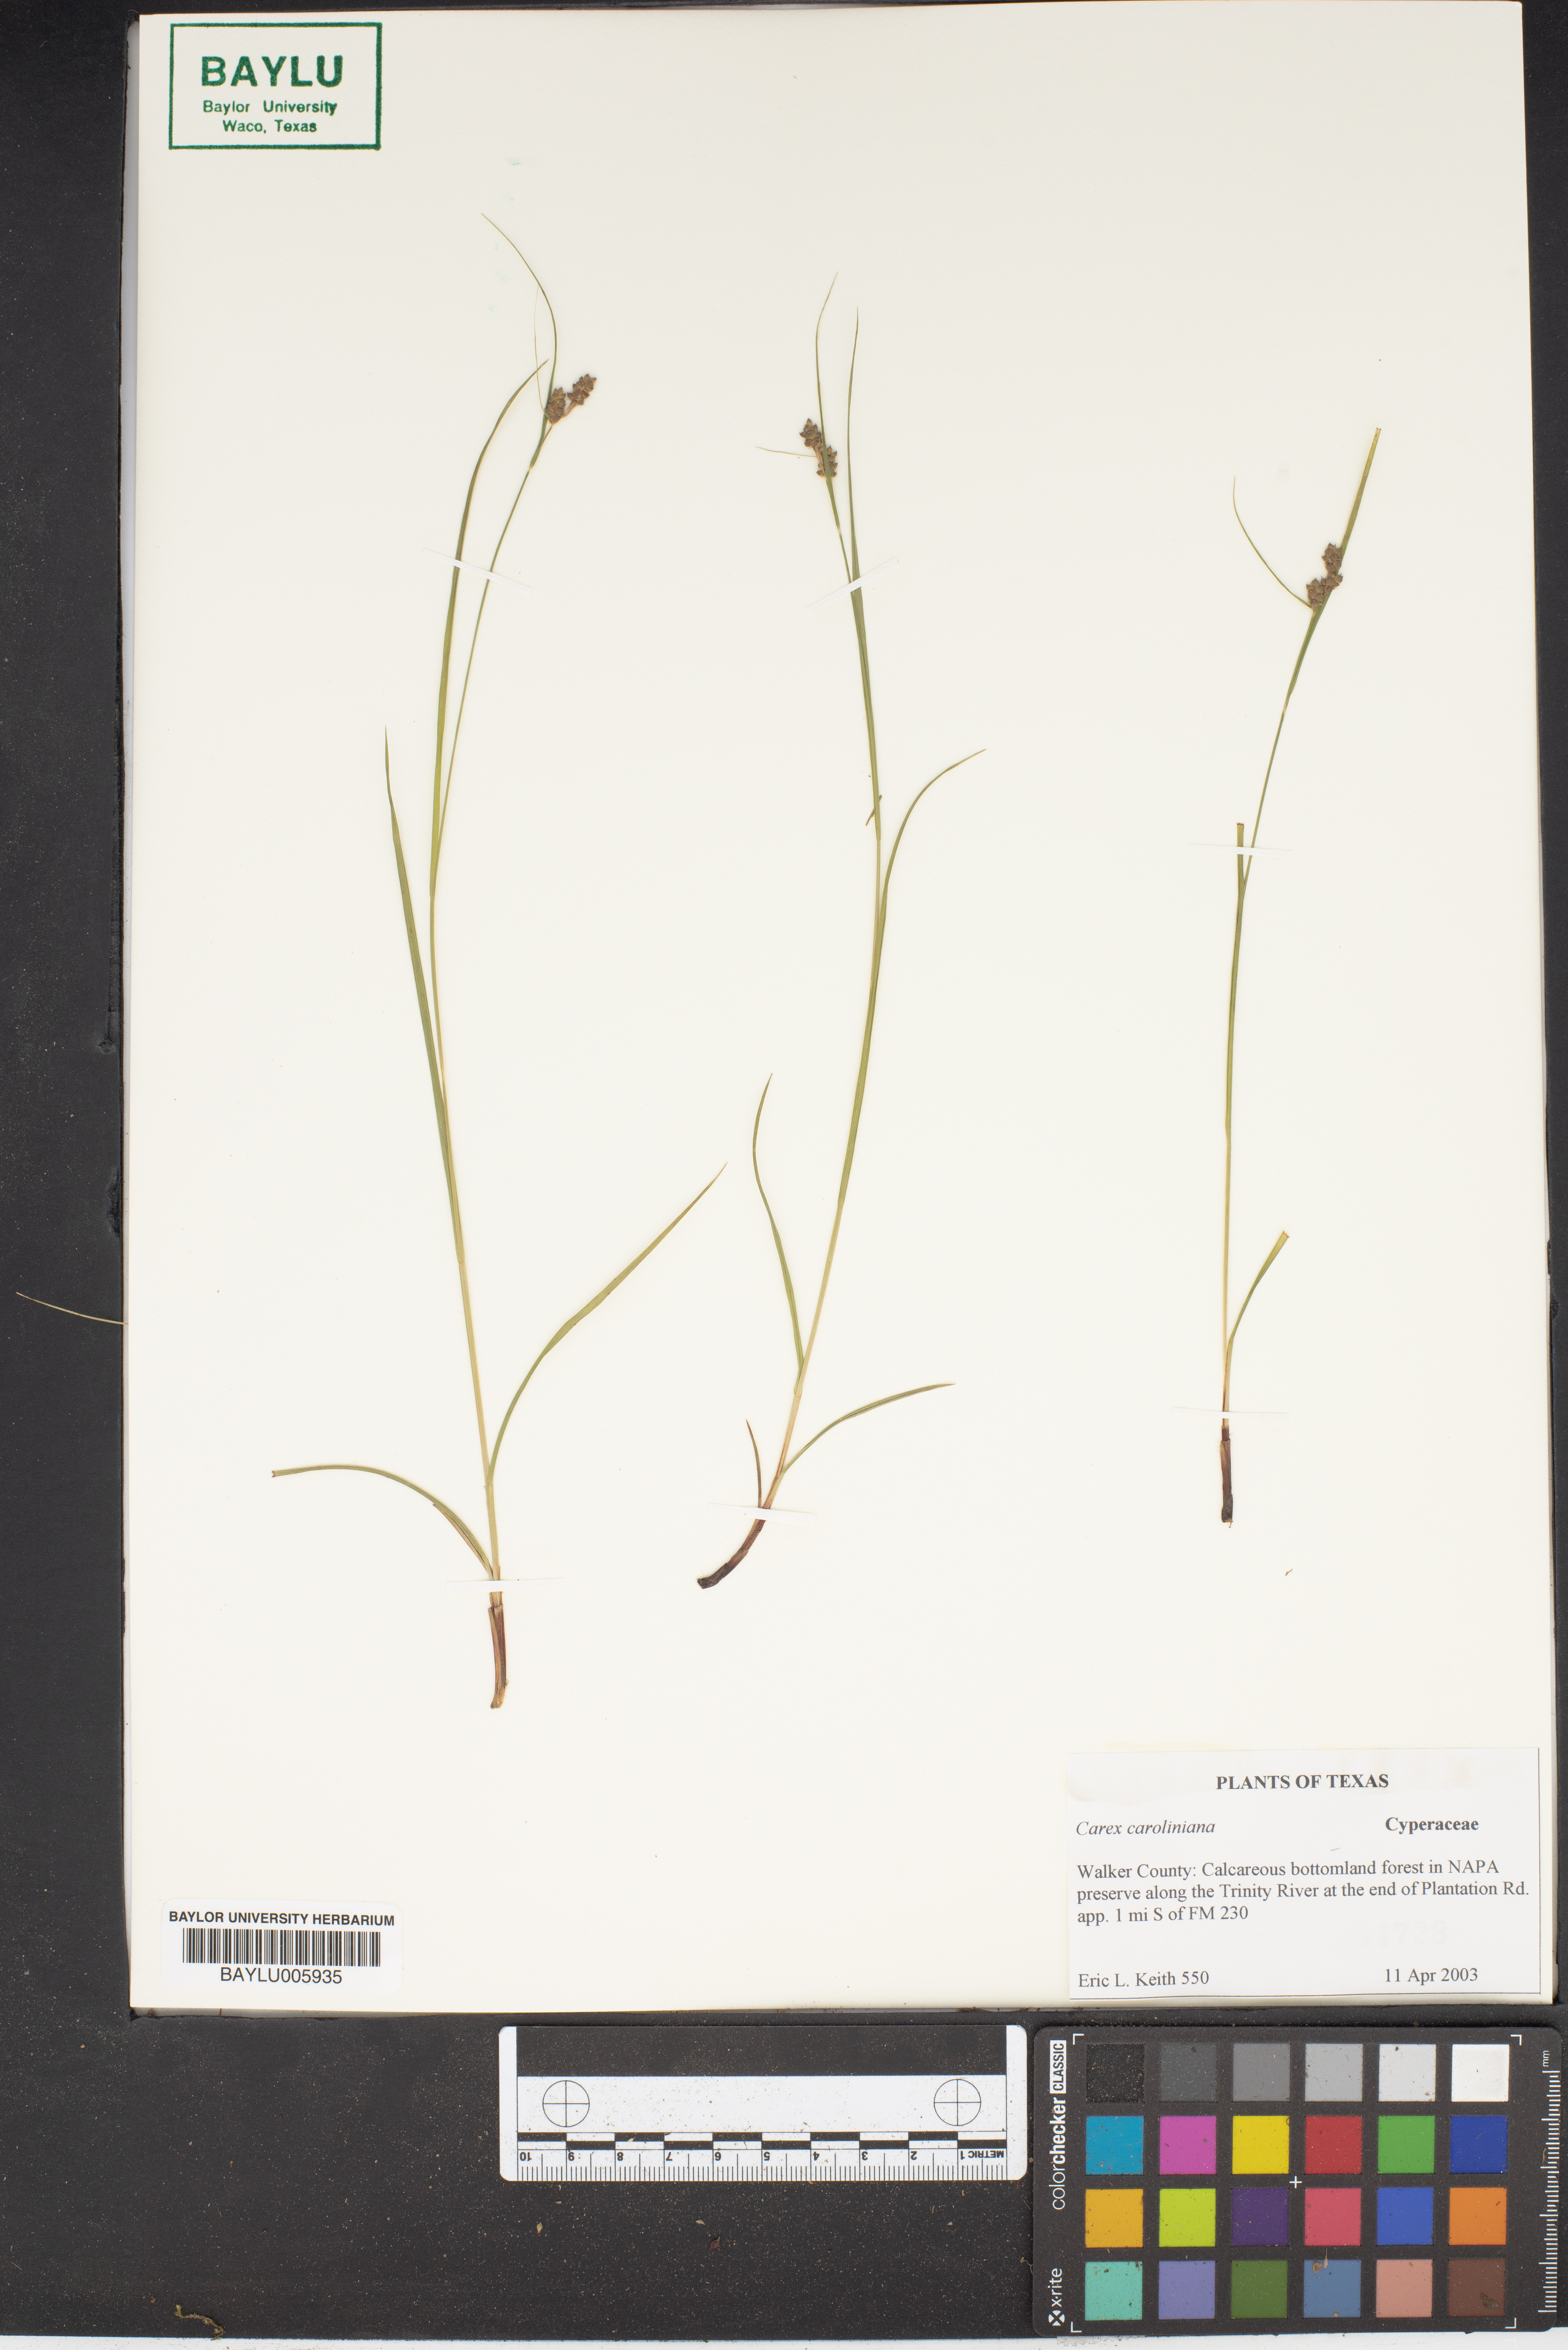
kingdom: Plantae
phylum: Tracheophyta
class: Liliopsida
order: Poales
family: Cyperaceae
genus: Carex
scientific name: Carex caroliniana
